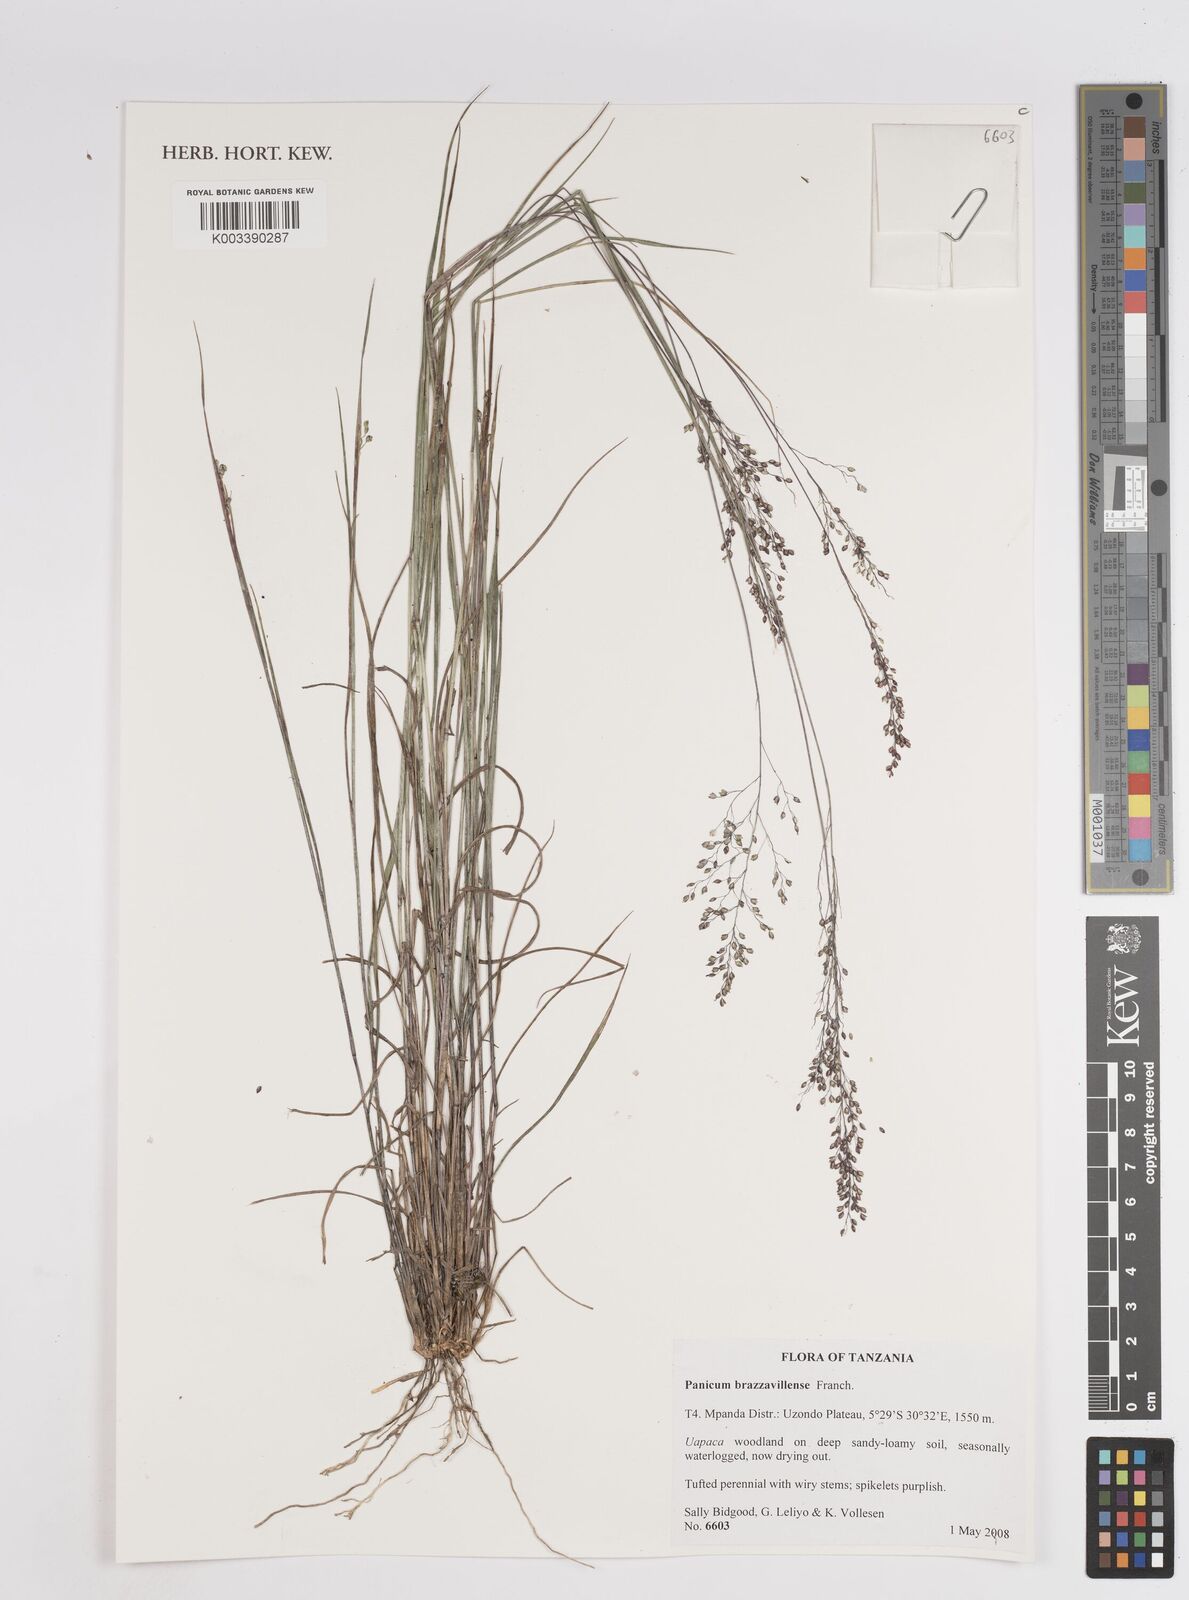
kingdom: Plantae
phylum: Tracheophyta
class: Liliopsida
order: Poales
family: Poaceae
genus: Trichanthecium
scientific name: Trichanthecium brazzavillense
